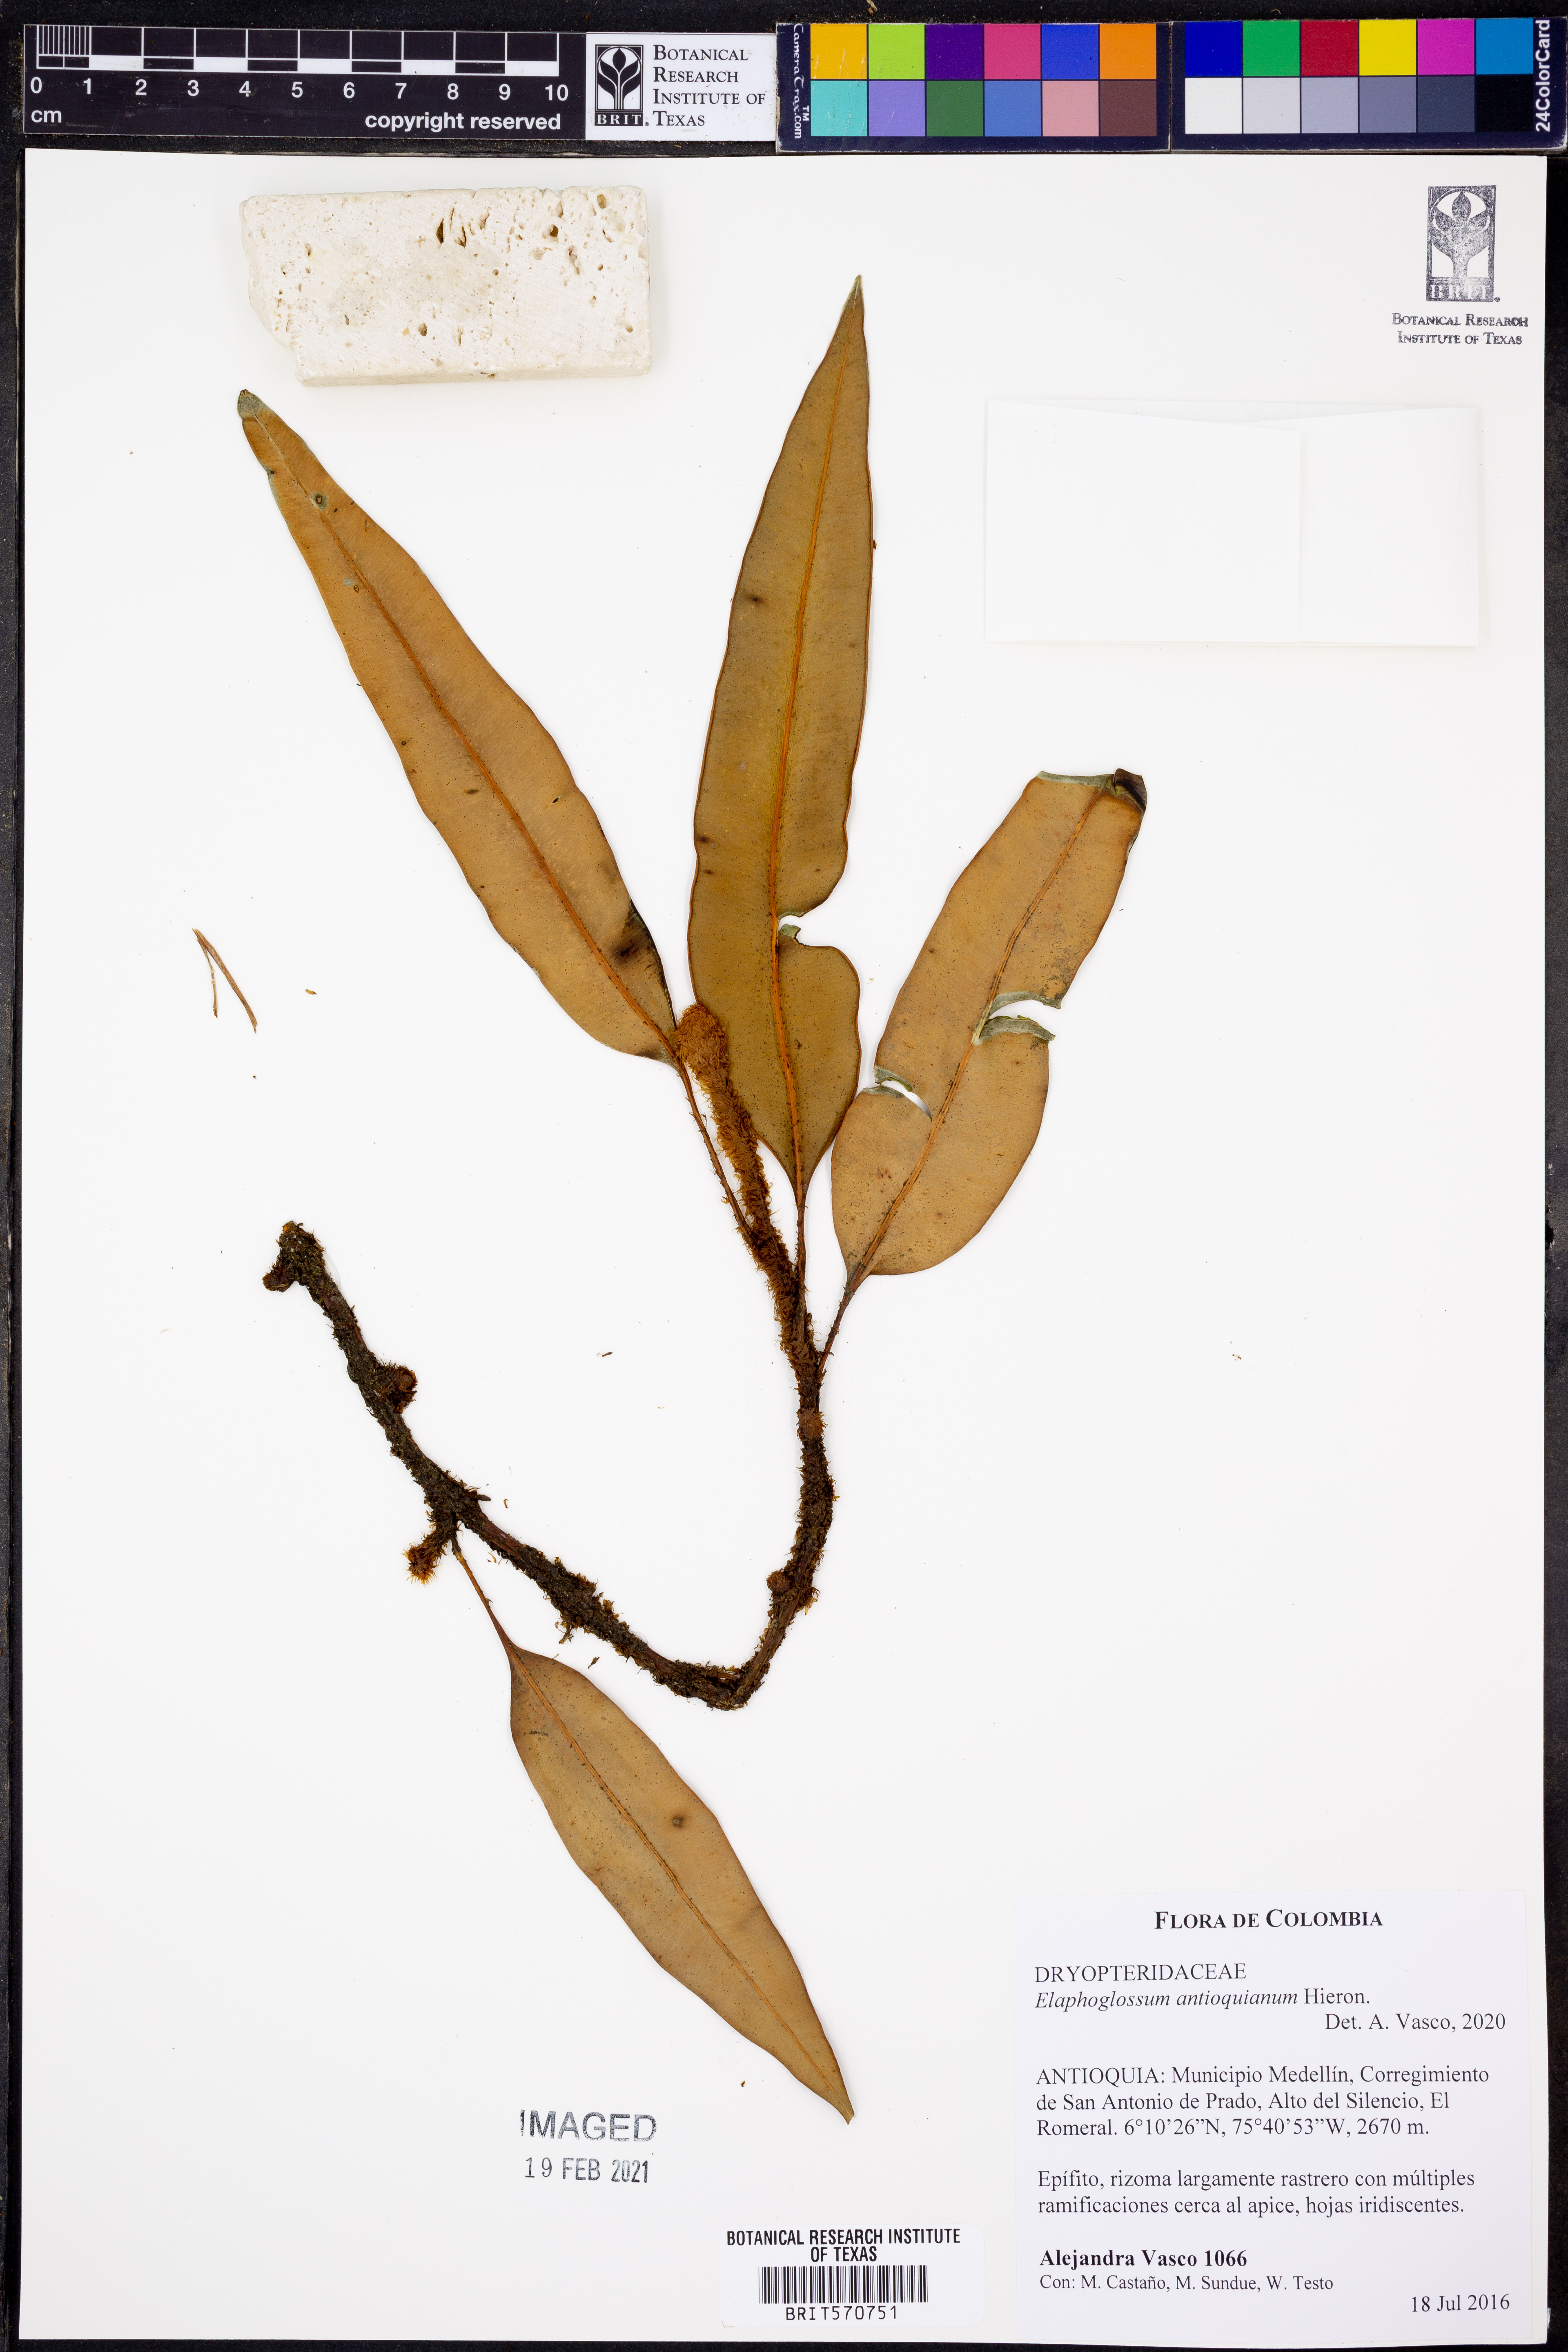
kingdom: Plantae
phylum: Tracheophyta
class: Polypodiopsida
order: Polypodiales
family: Dryopteridaceae
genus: Elaphoglossum
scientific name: Elaphoglossum antioquianum
